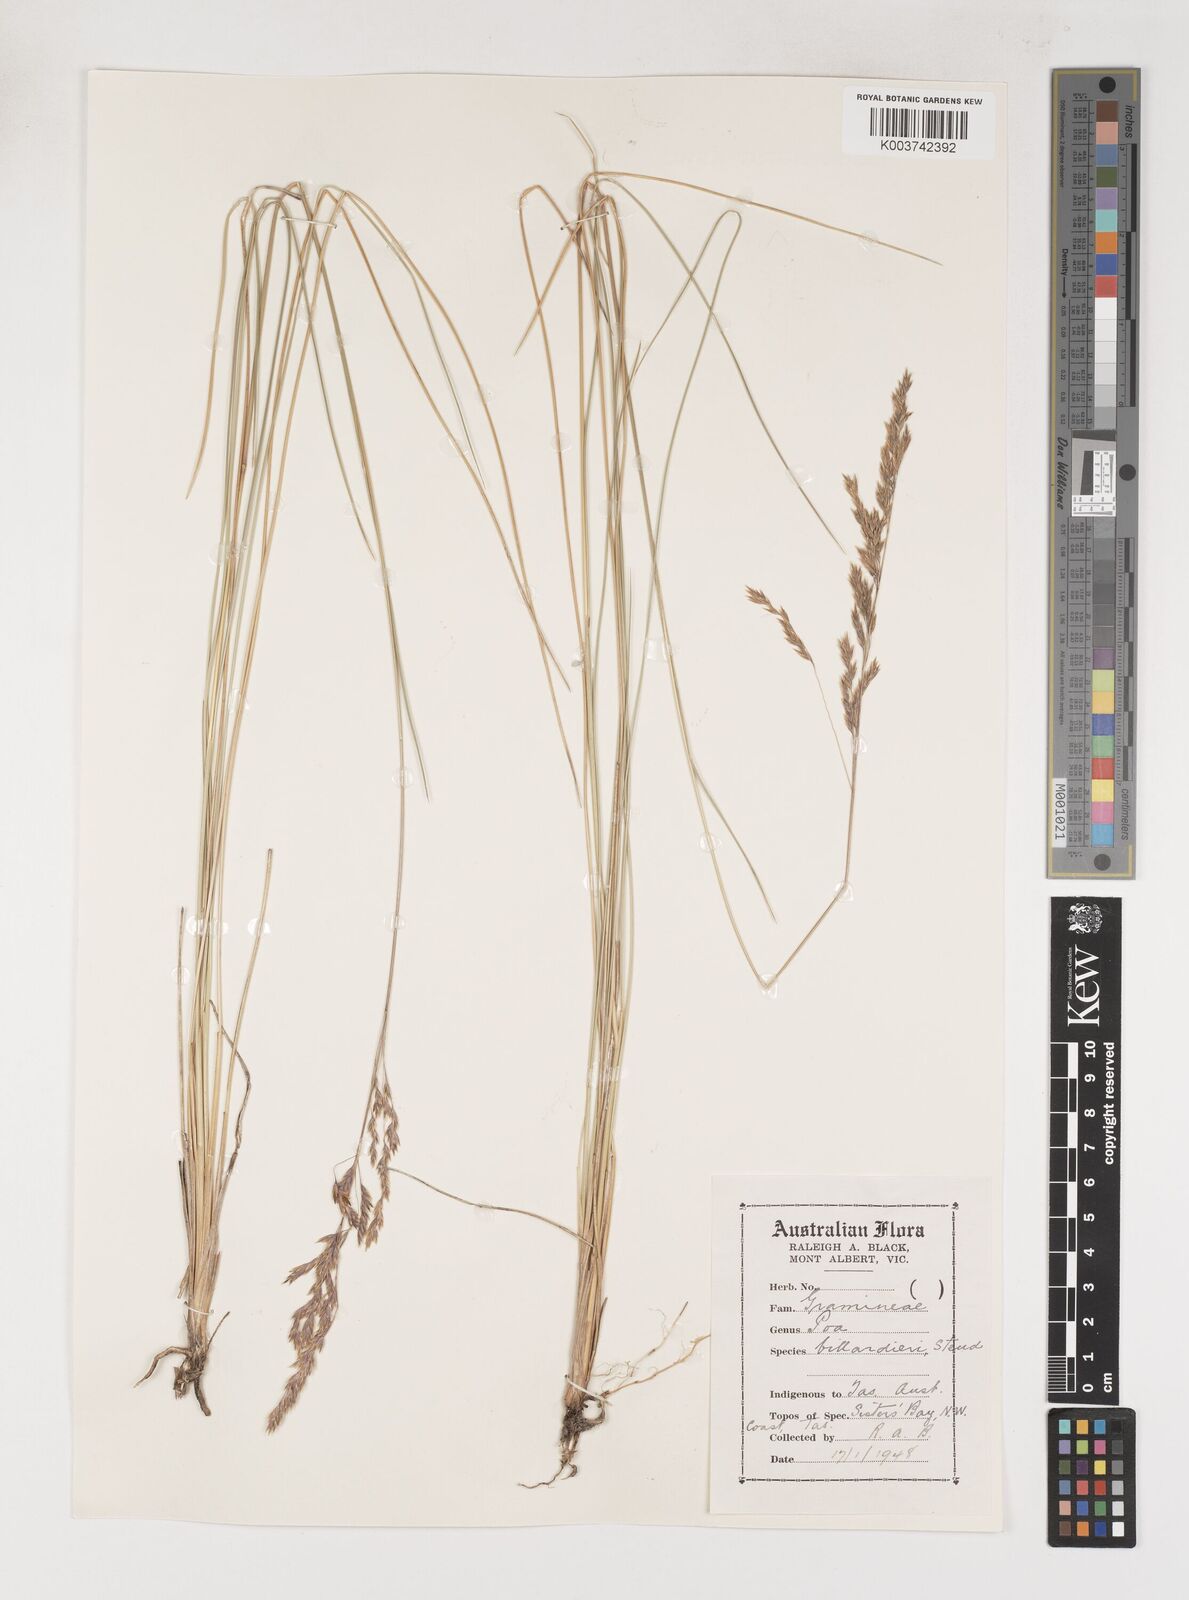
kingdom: Plantae
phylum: Tracheophyta
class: Liliopsida
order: Poales
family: Poaceae
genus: Poa
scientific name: Poa poiformis
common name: Tussock poa
